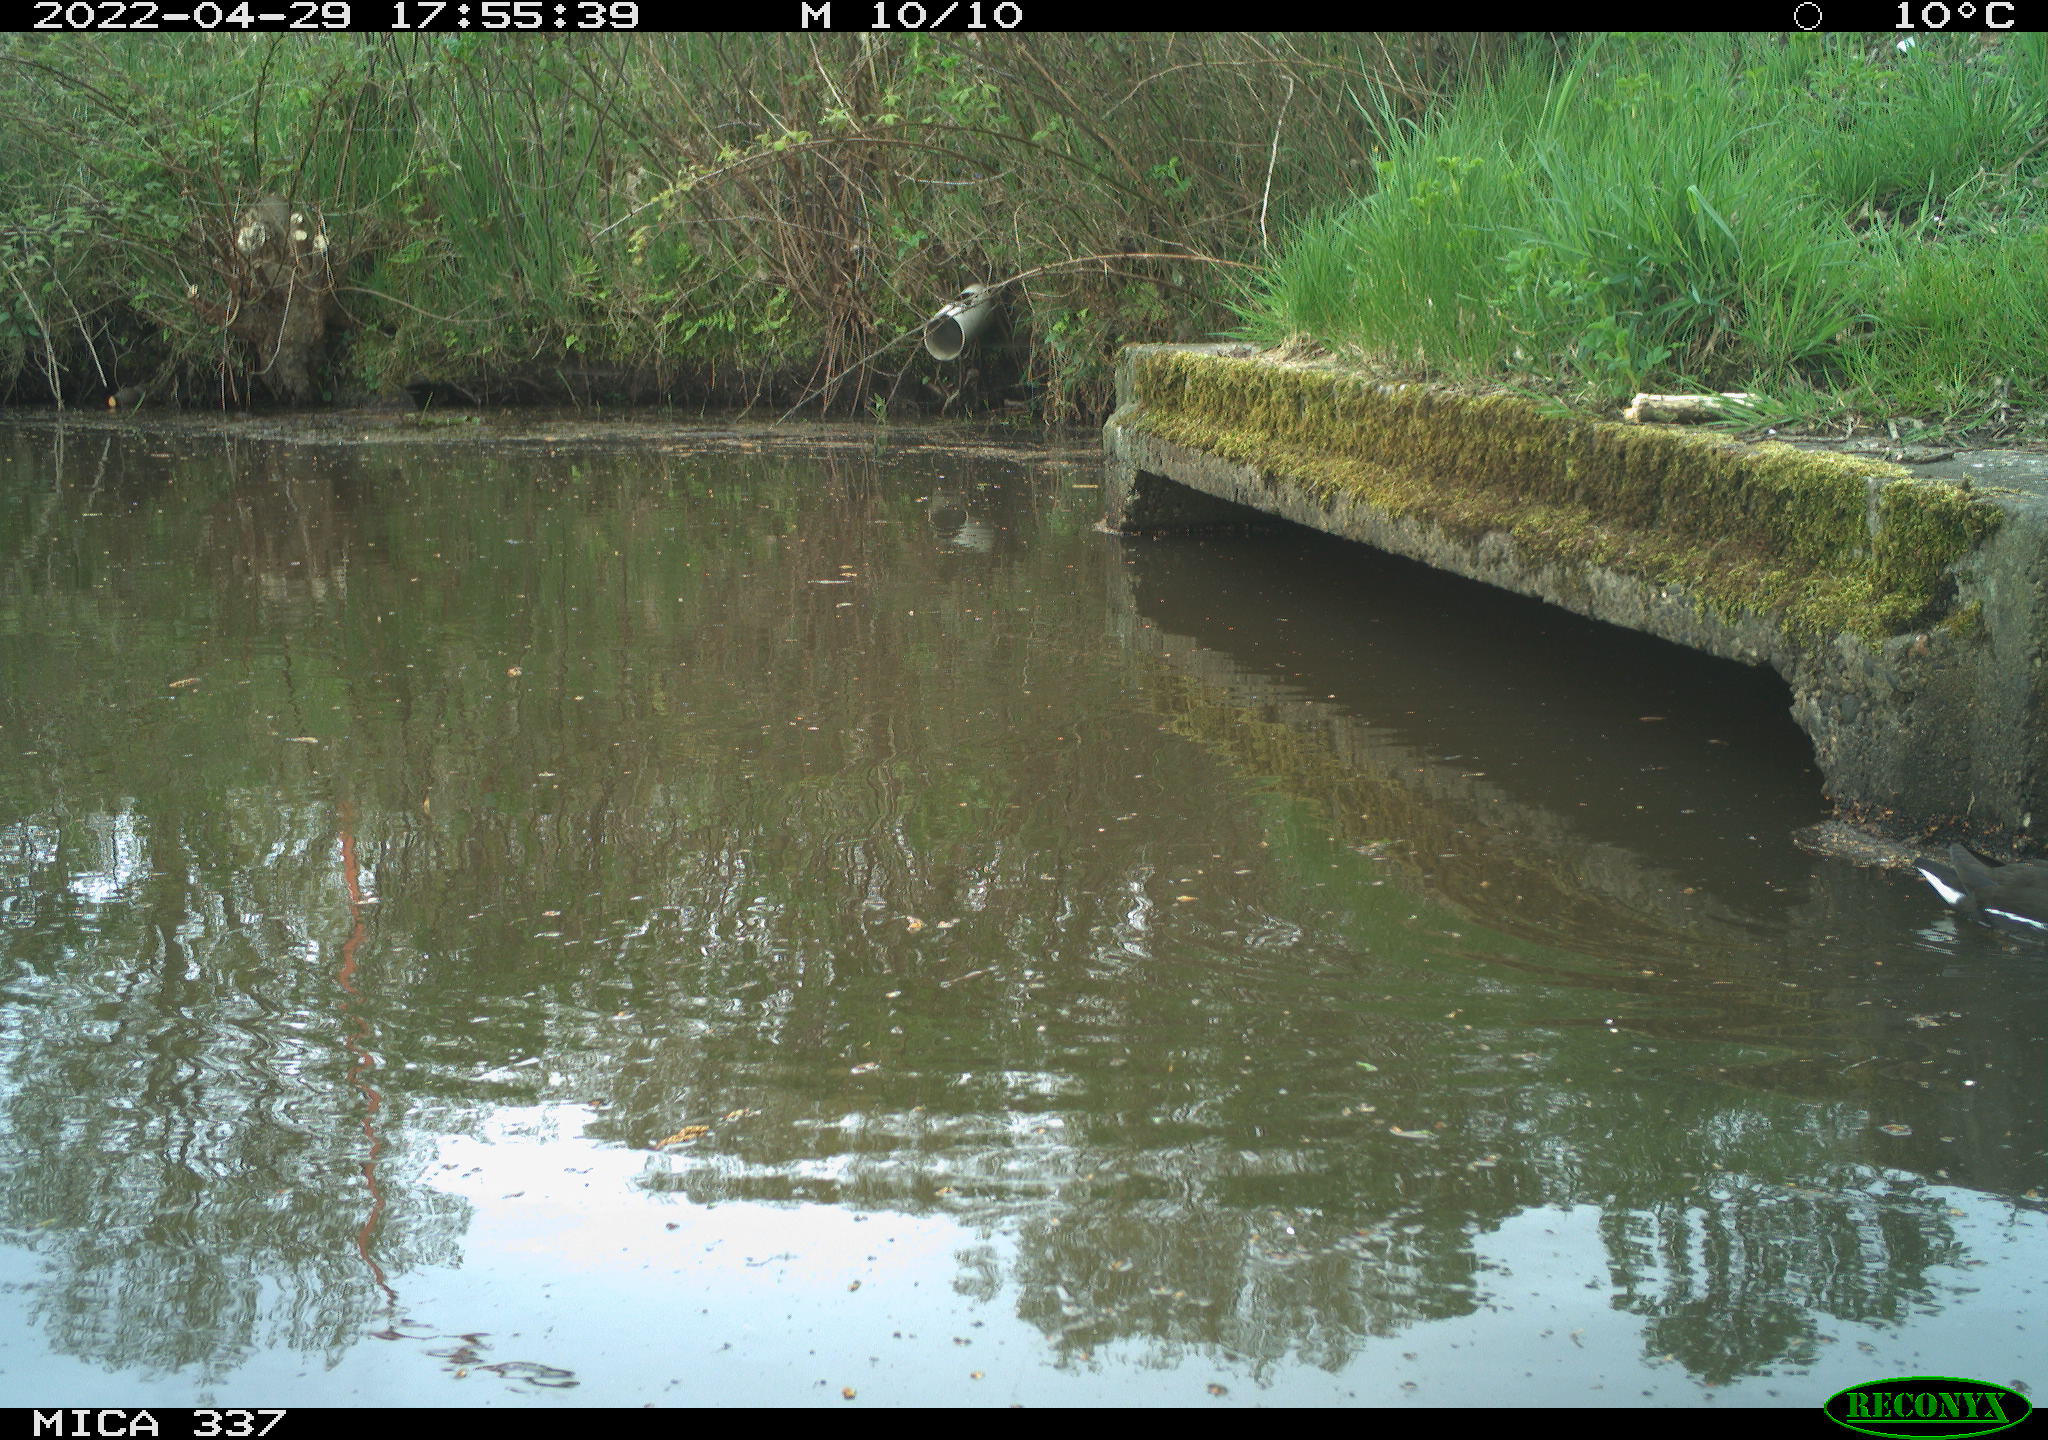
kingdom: Animalia
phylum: Chordata
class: Aves
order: Gruiformes
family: Rallidae
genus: Gallinula
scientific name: Gallinula chloropus
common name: Common moorhen
